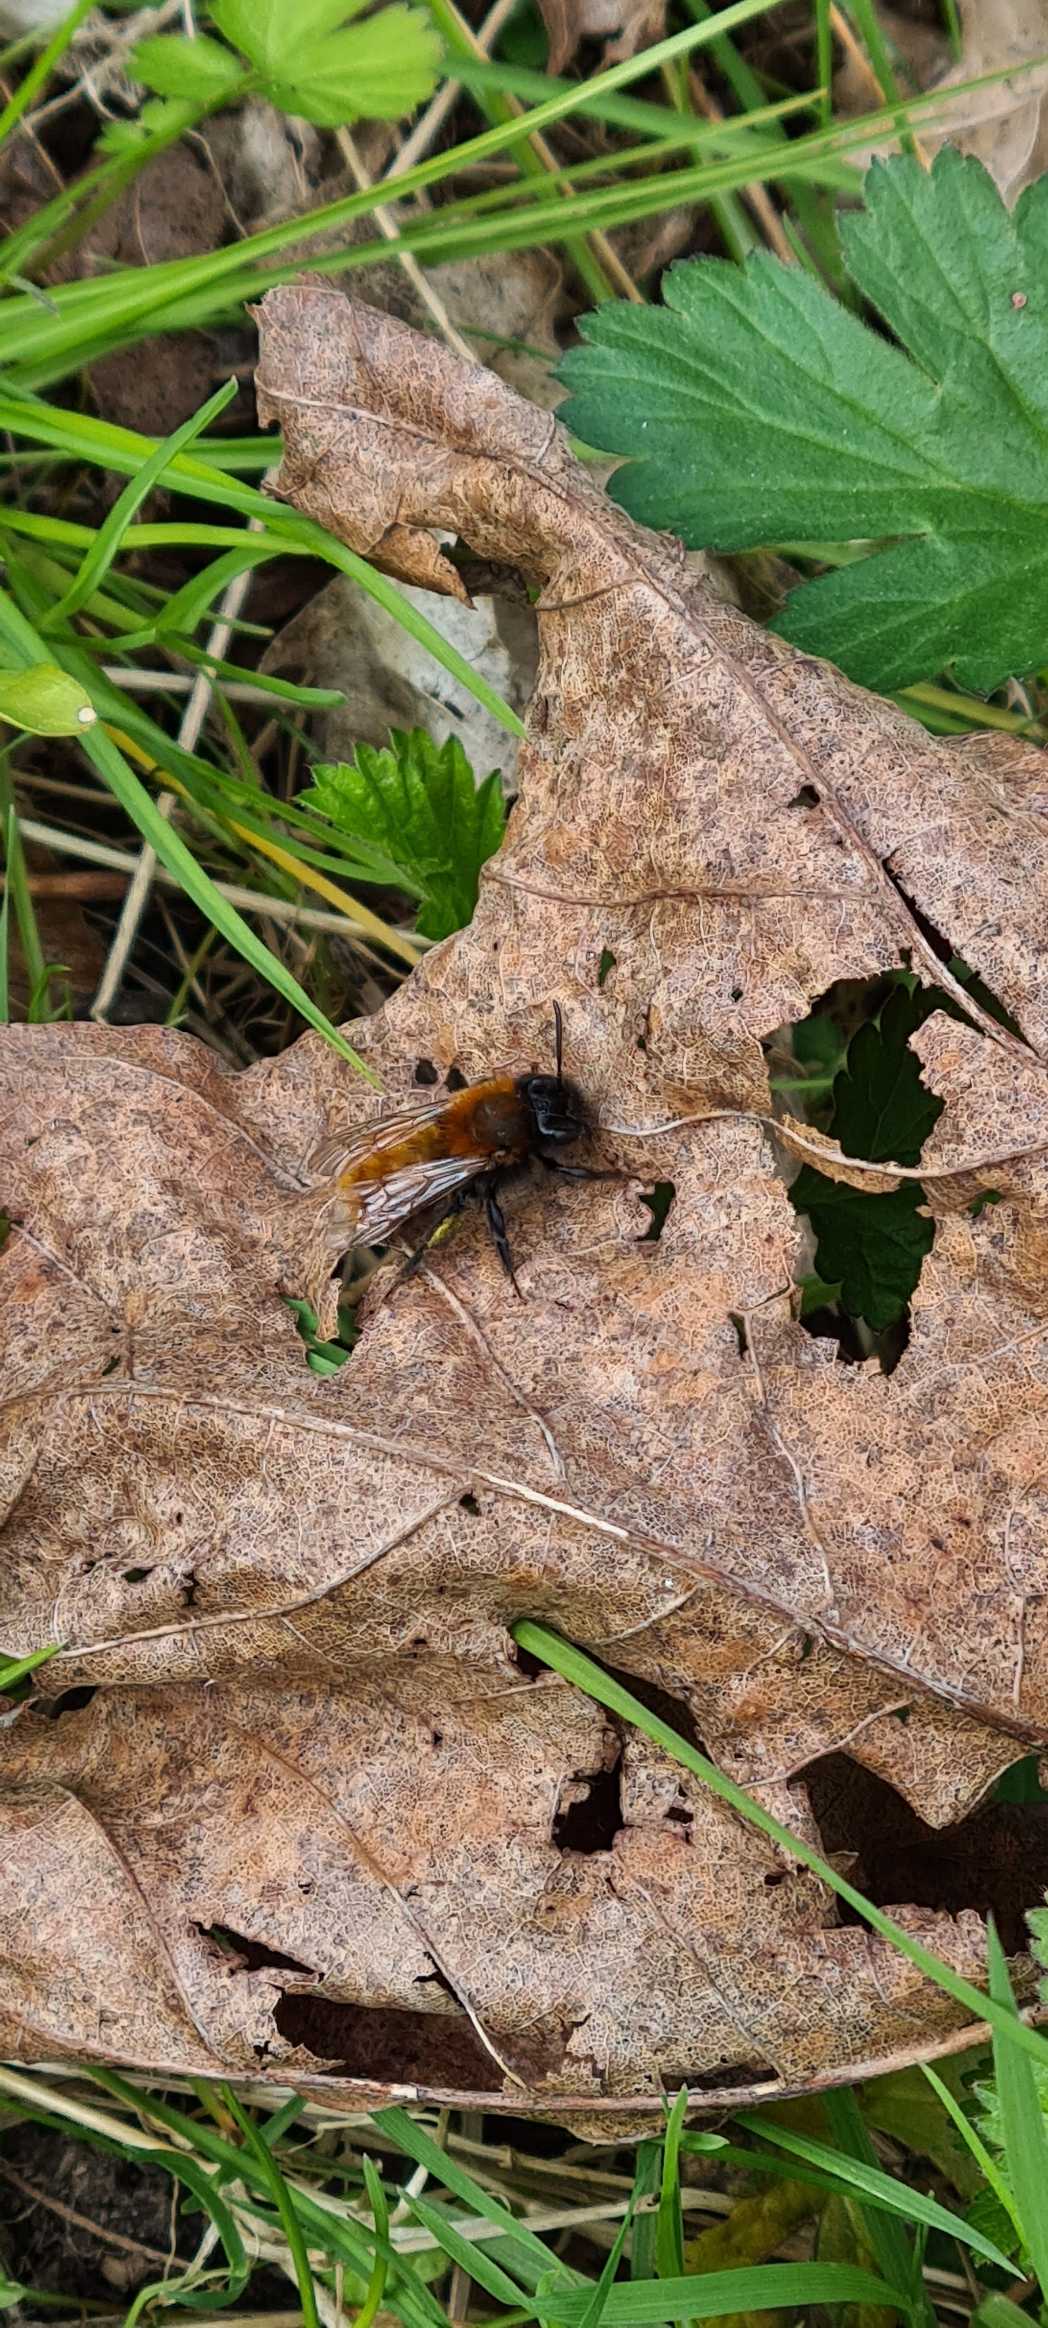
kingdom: Animalia
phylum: Arthropoda
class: Insecta
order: Hymenoptera
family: Andrenidae
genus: Andrena
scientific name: Andrena fulva
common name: Rødpelset jordbi
